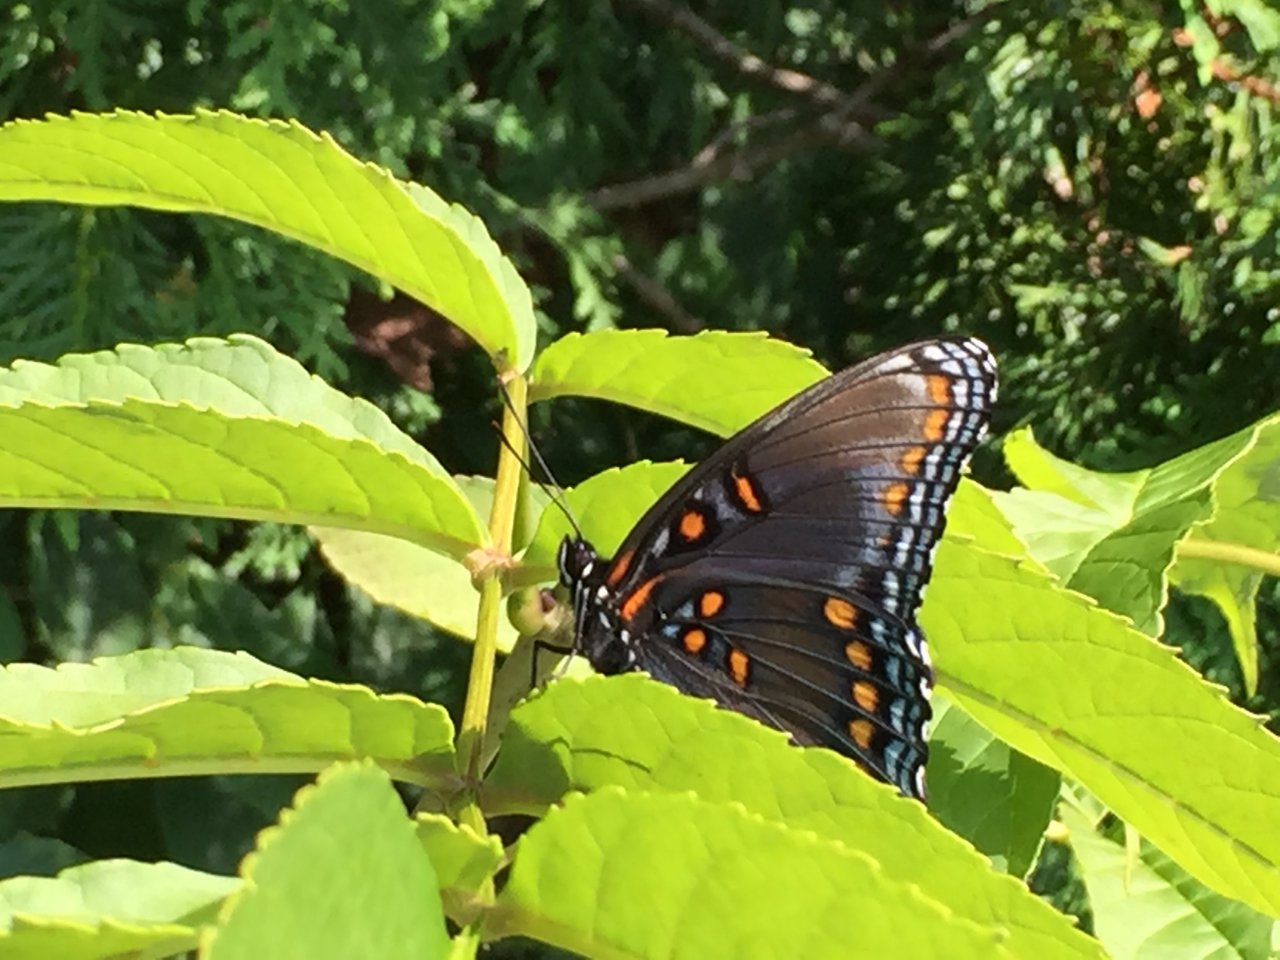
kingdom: Animalia
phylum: Arthropoda
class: Insecta
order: Lepidoptera
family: Nymphalidae
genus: Limenitis
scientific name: Limenitis astyanax
